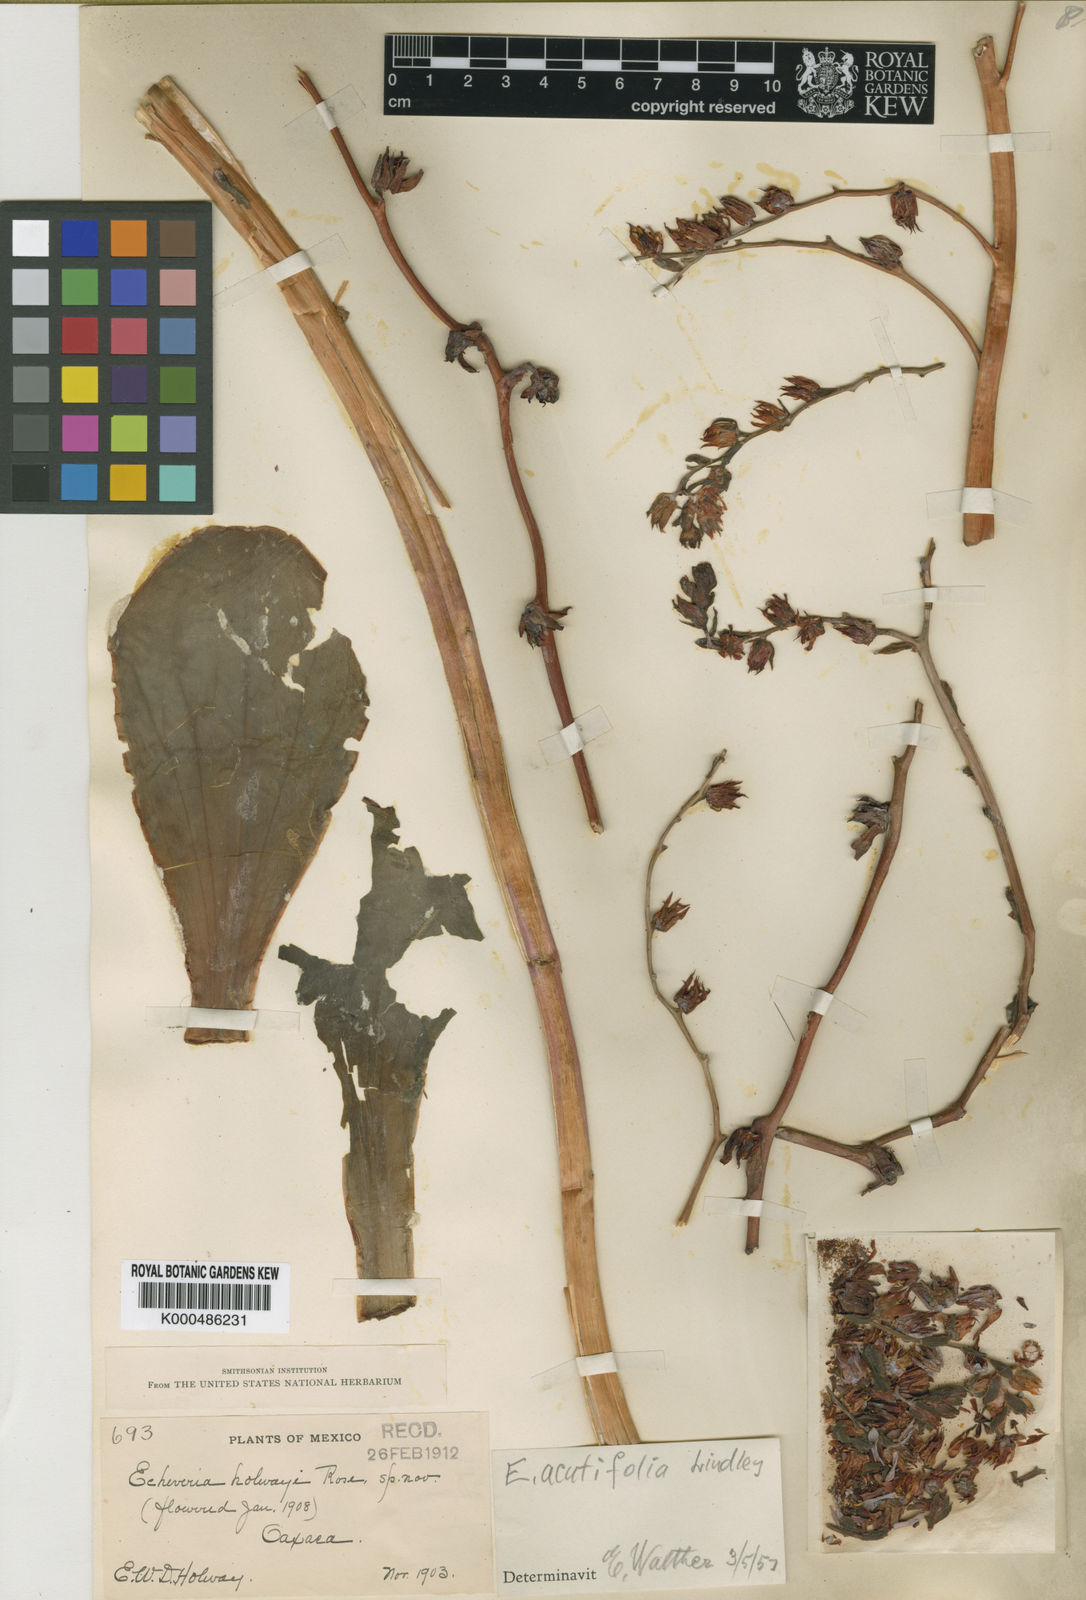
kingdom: Plantae
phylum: Tracheophyta
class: Magnoliopsida
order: Saxifragales
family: Crassulaceae
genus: Echeveria
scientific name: Echeveria acutifolia
